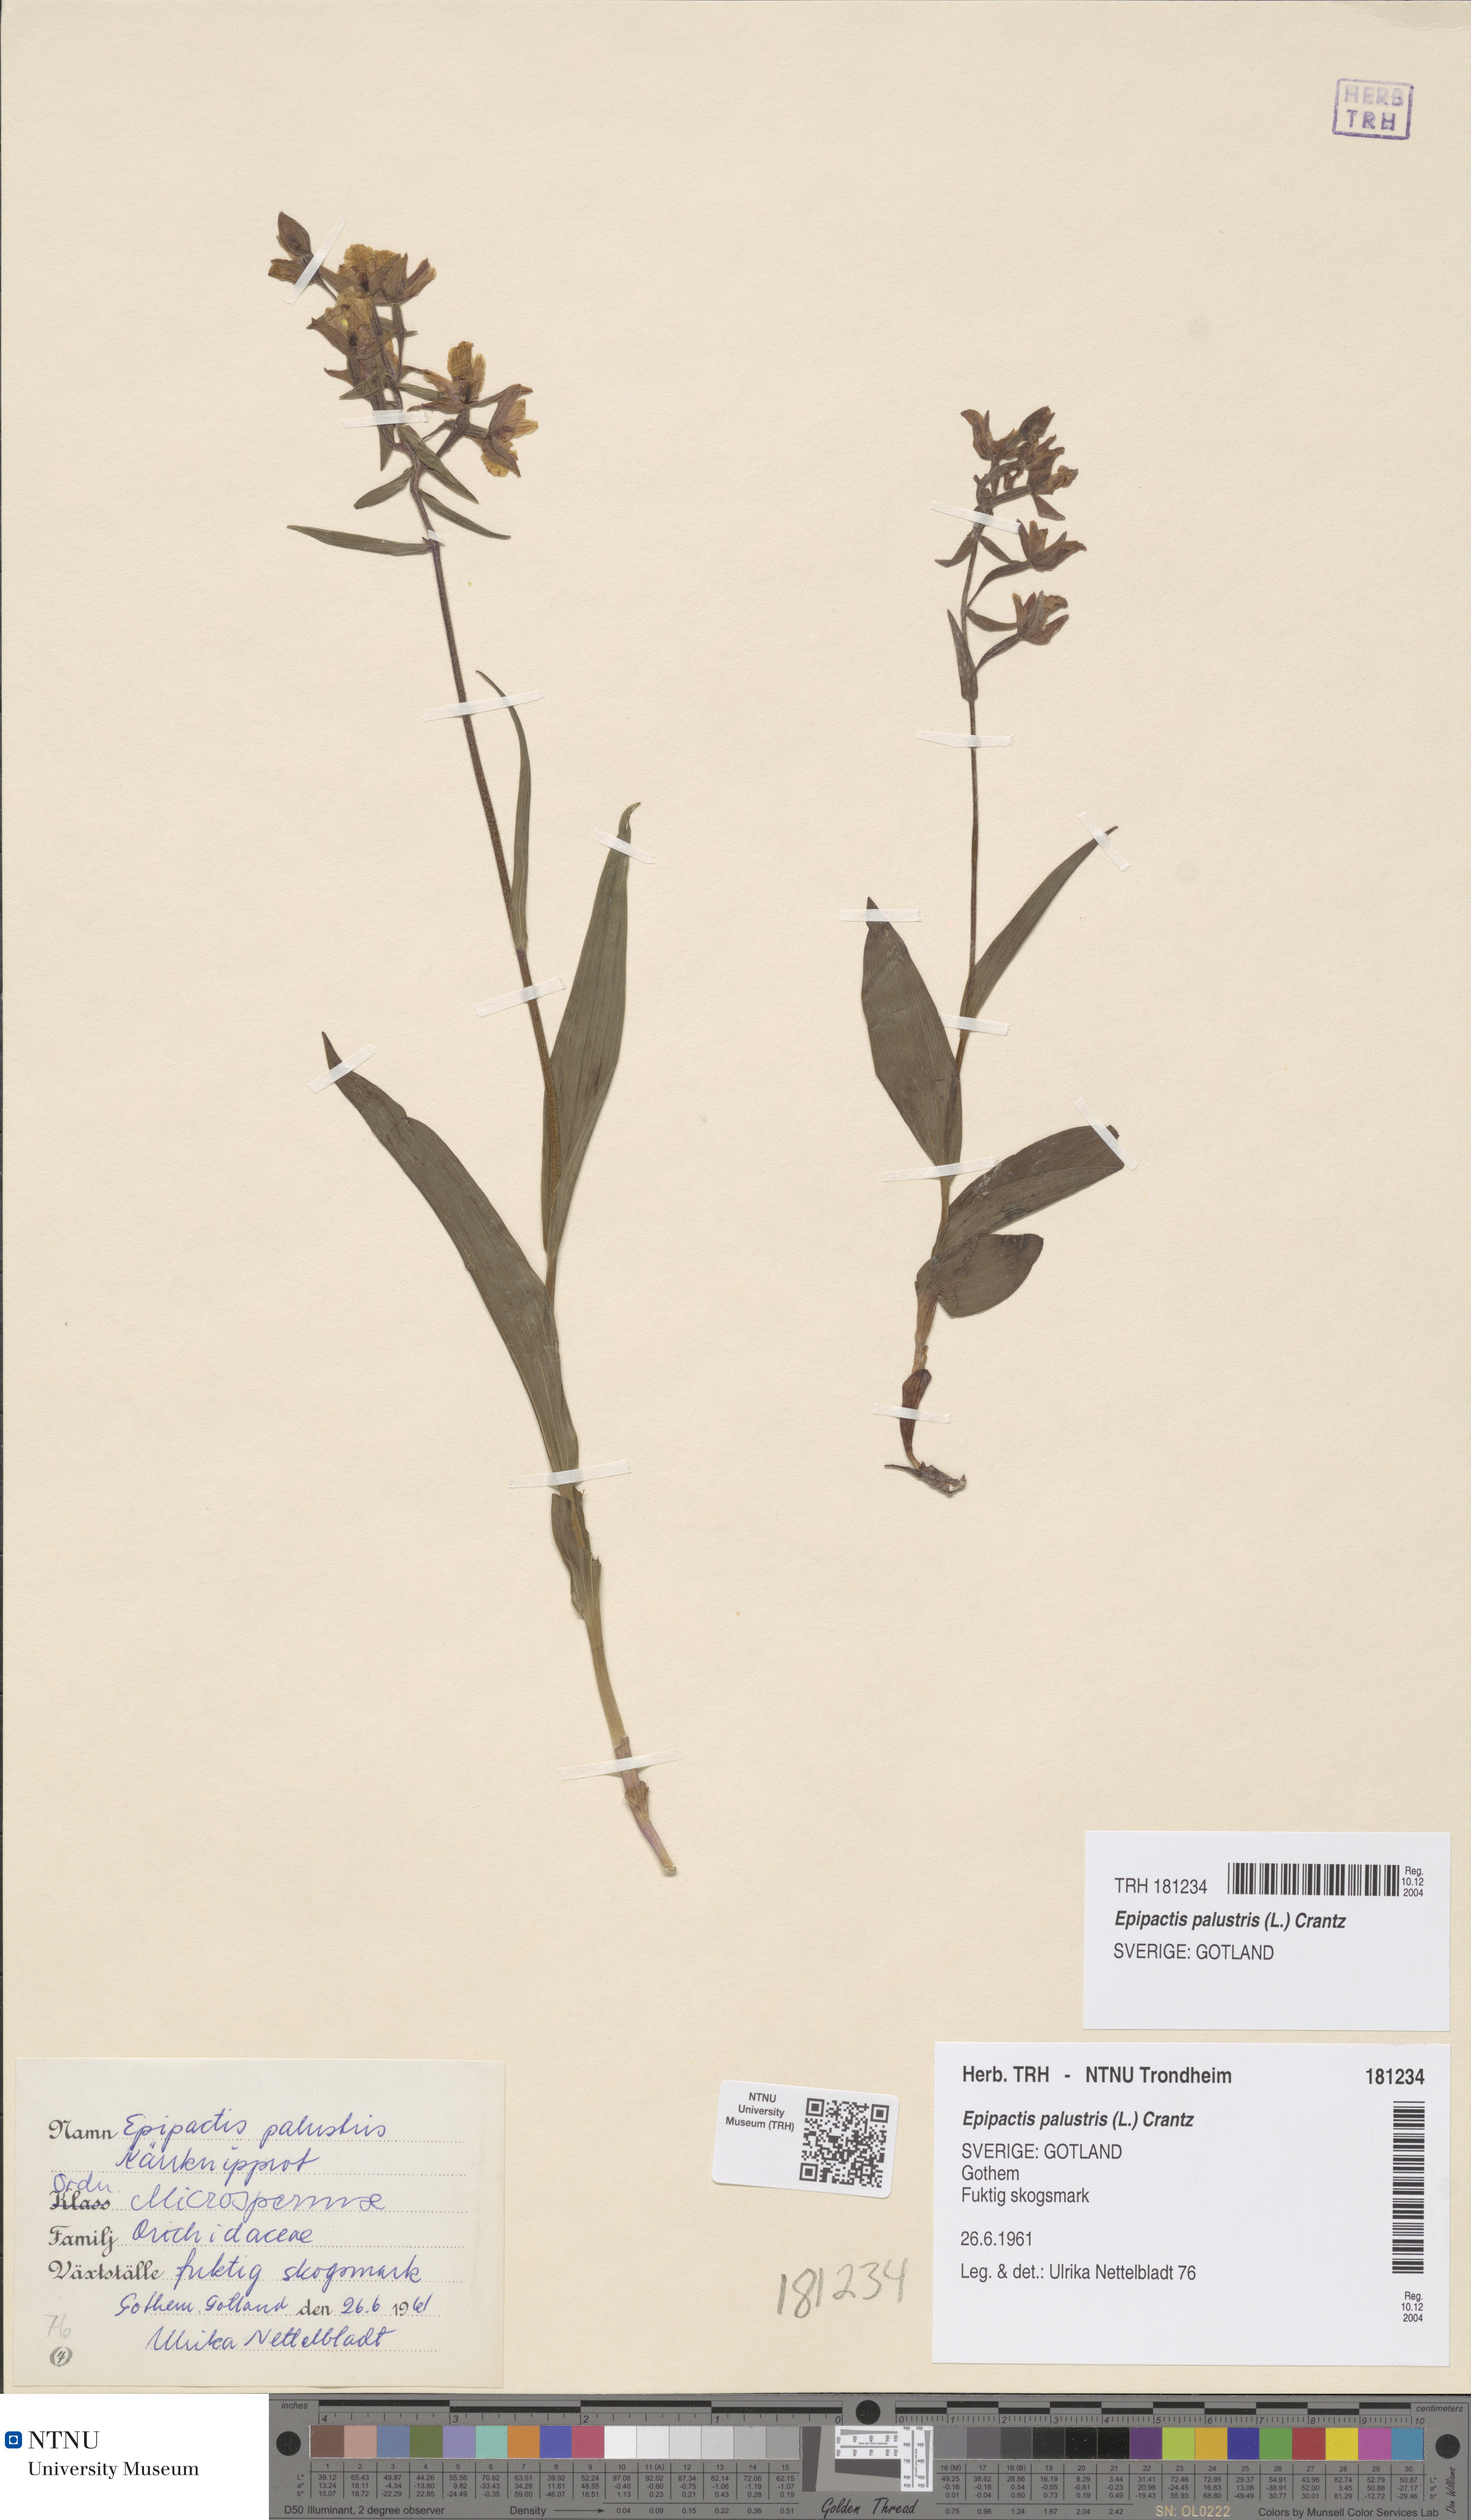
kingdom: Plantae
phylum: Tracheophyta
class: Liliopsida
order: Asparagales
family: Orchidaceae
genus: Epipactis
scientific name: Epipactis palustris
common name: Marsh helleborine
